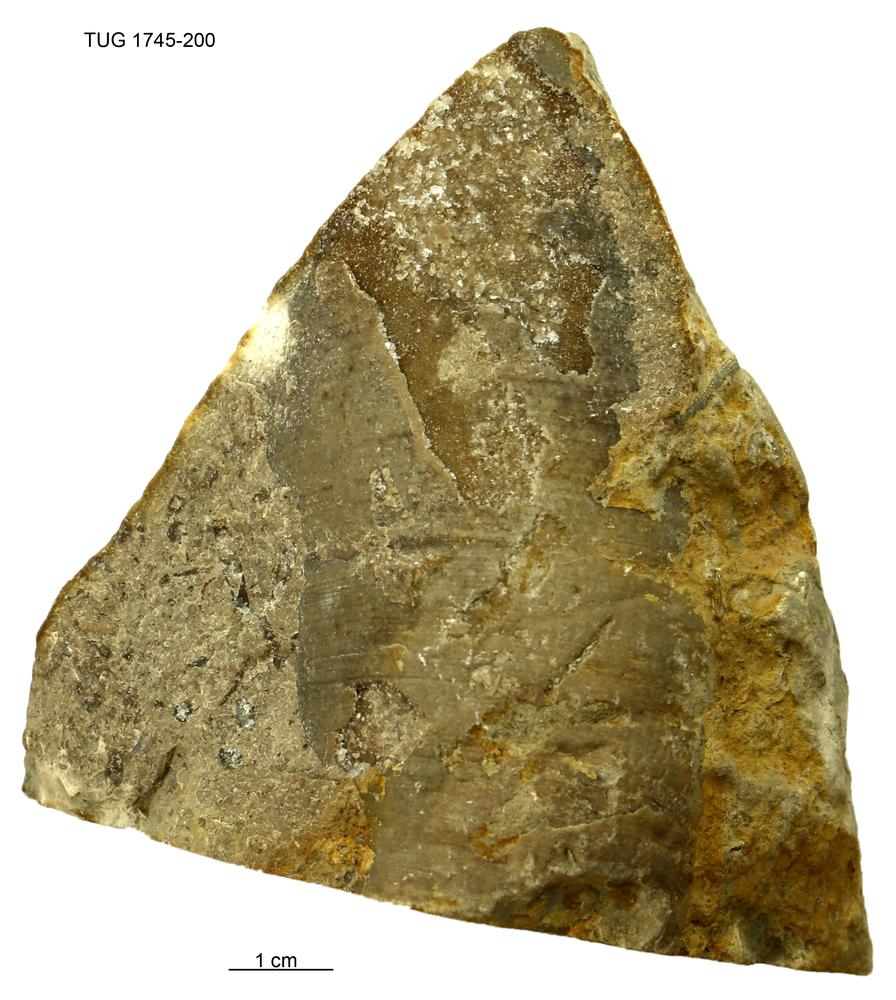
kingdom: Animalia
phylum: Mollusca
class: Cephalopoda
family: Protophragmoceratidae
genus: Protophragmoceras
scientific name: Protophragmoceras
